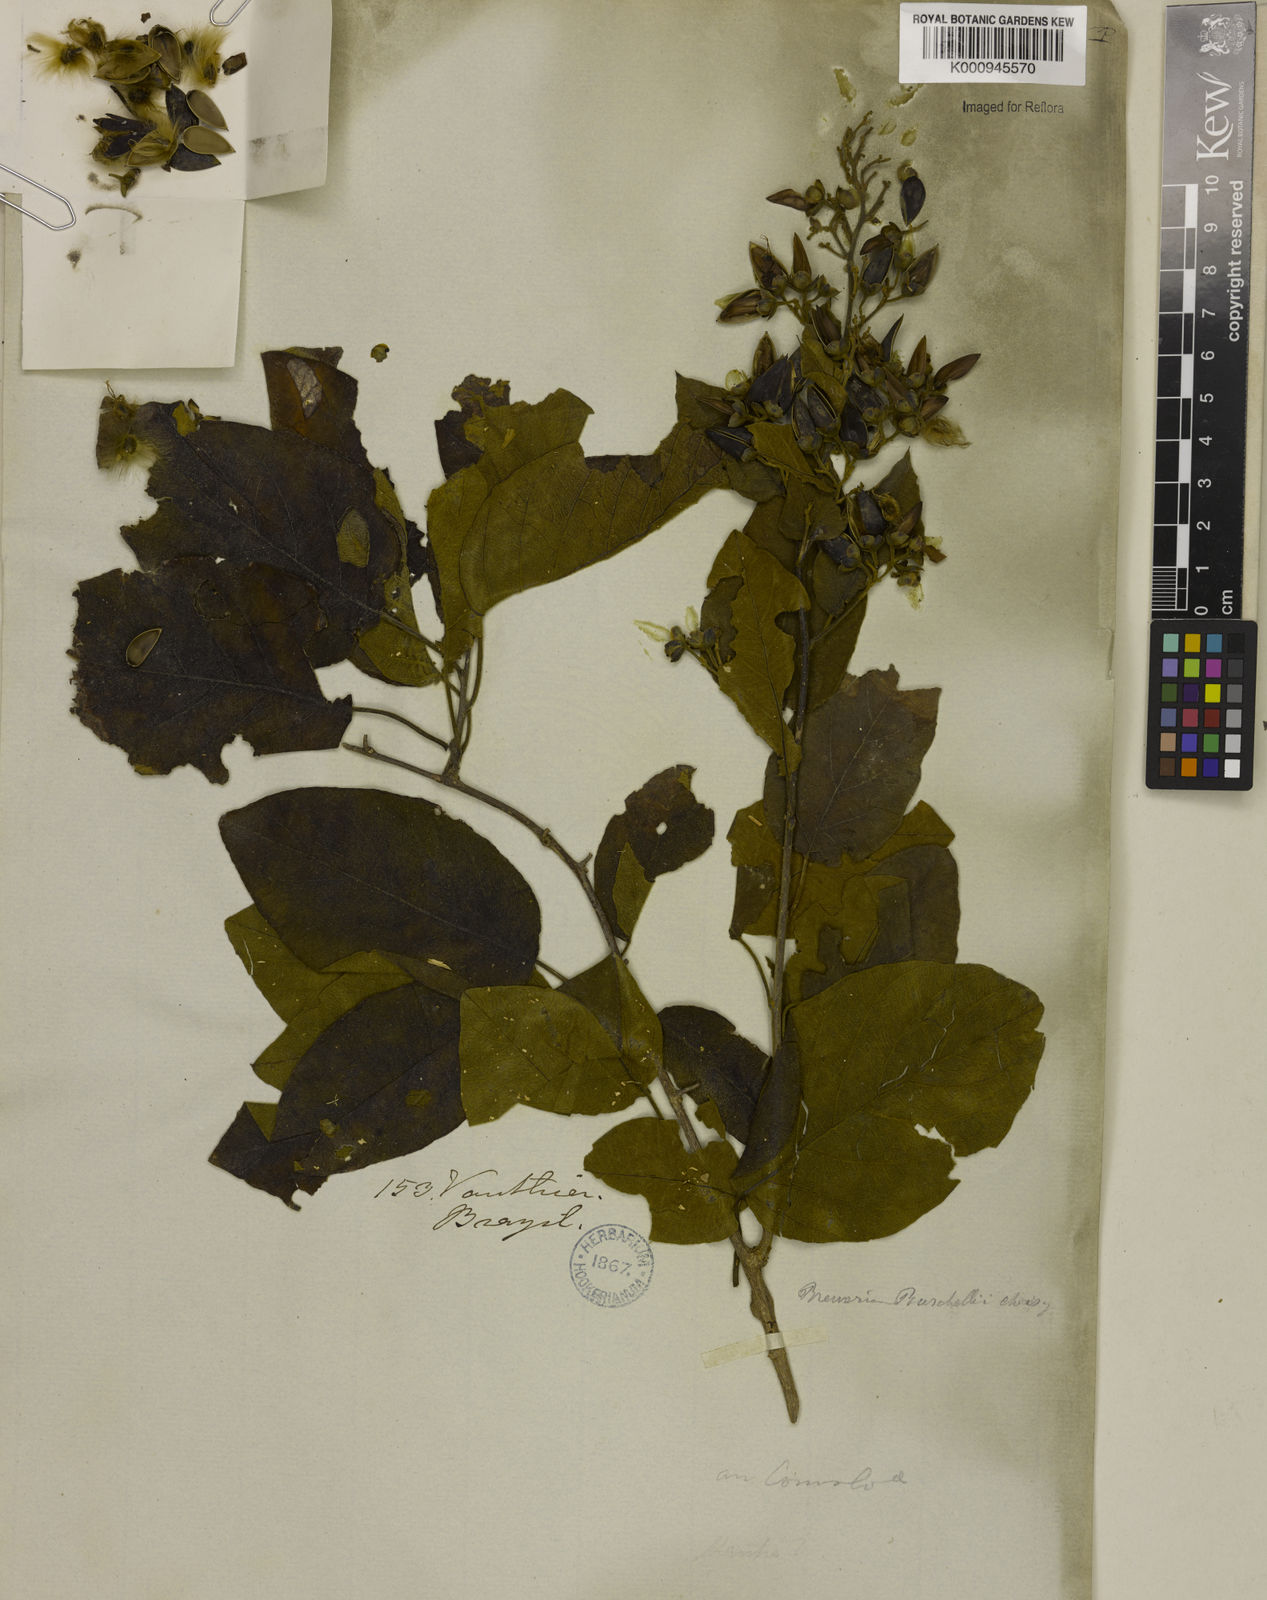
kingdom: Plantae
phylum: Tracheophyta
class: Magnoliopsida
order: Solanales
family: Convolvulaceae
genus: Bonamia
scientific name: Bonamia agrostopolis
